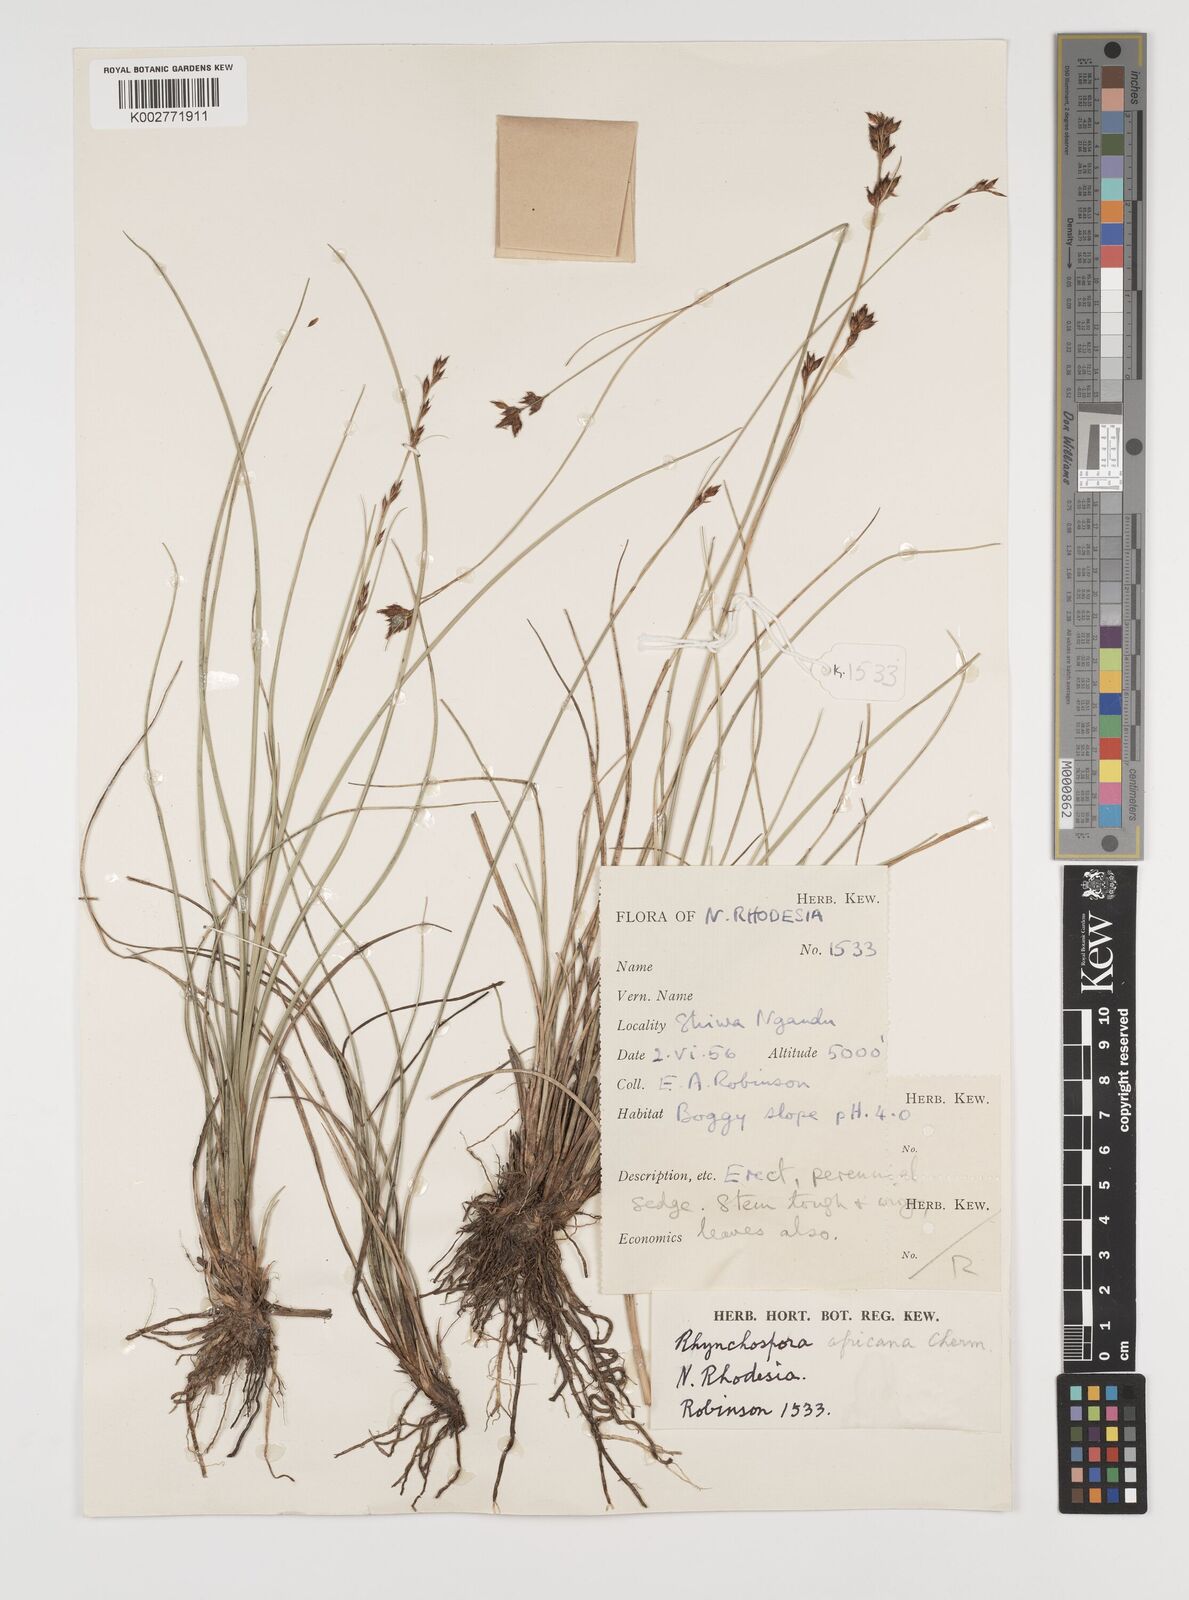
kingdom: Plantae
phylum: Tracheophyta
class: Liliopsida
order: Poales
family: Cyperaceae
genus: Rhynchospora
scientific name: Rhynchospora angolensis
